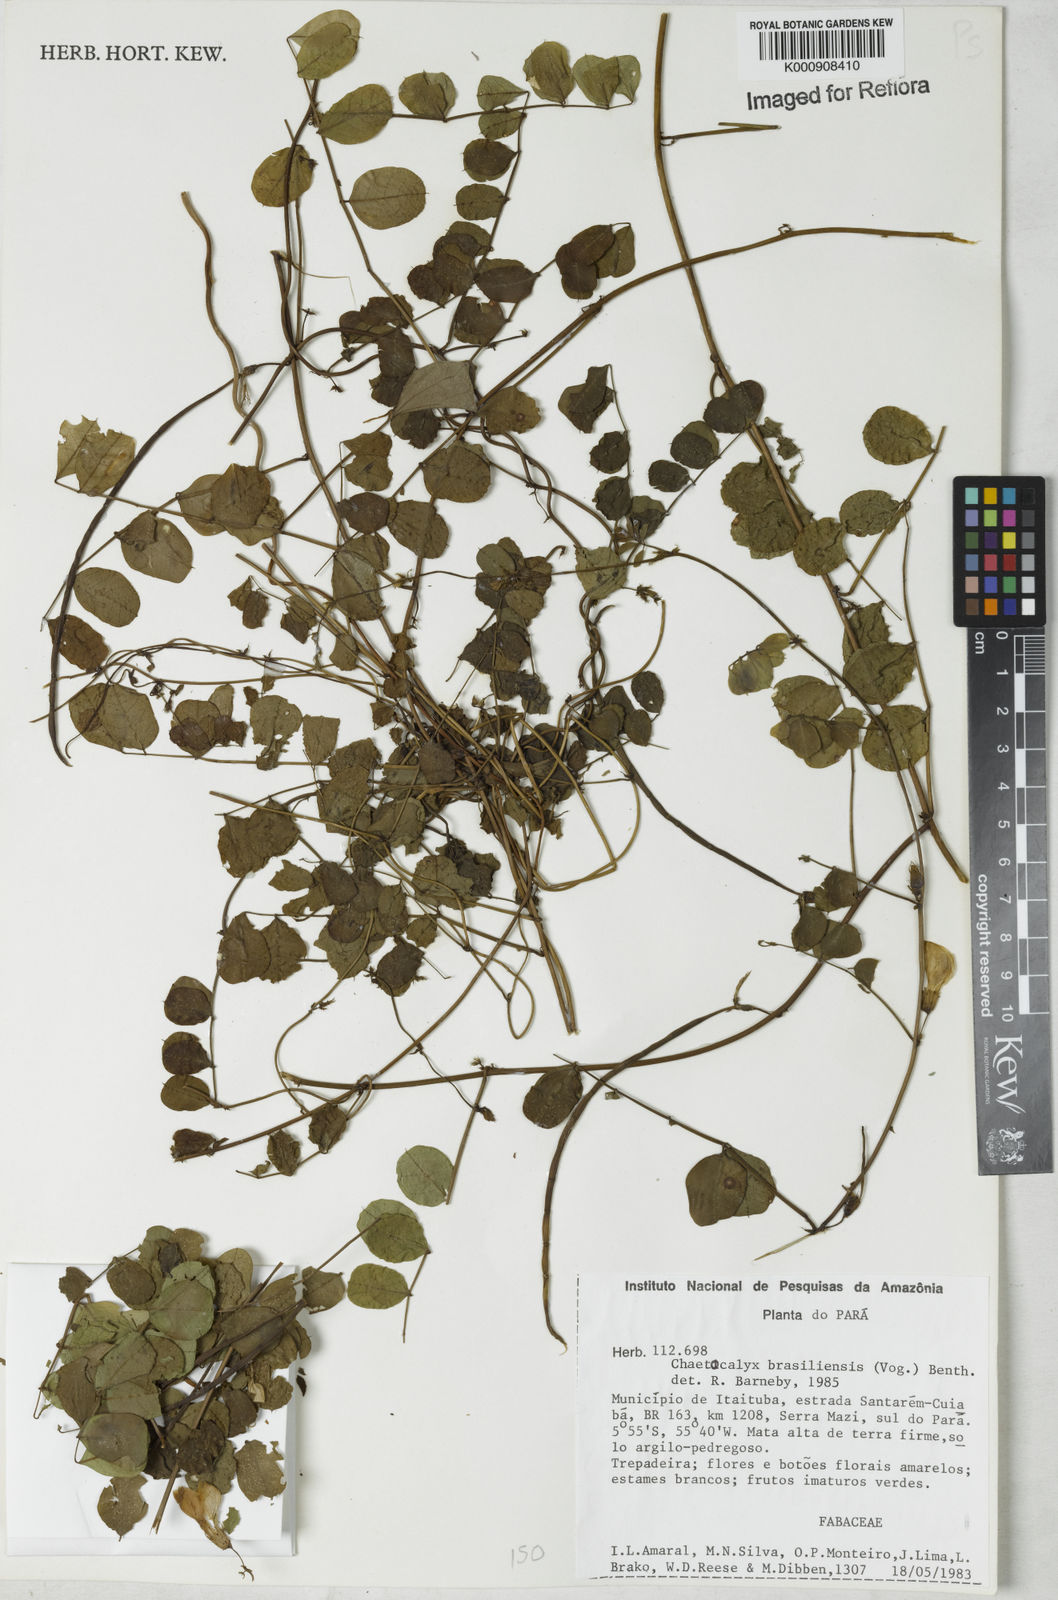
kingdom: Plantae
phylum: Tracheophyta
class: Magnoliopsida
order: Fabales
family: Fabaceae
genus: Nissolia
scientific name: Nissolia brasiliensis
